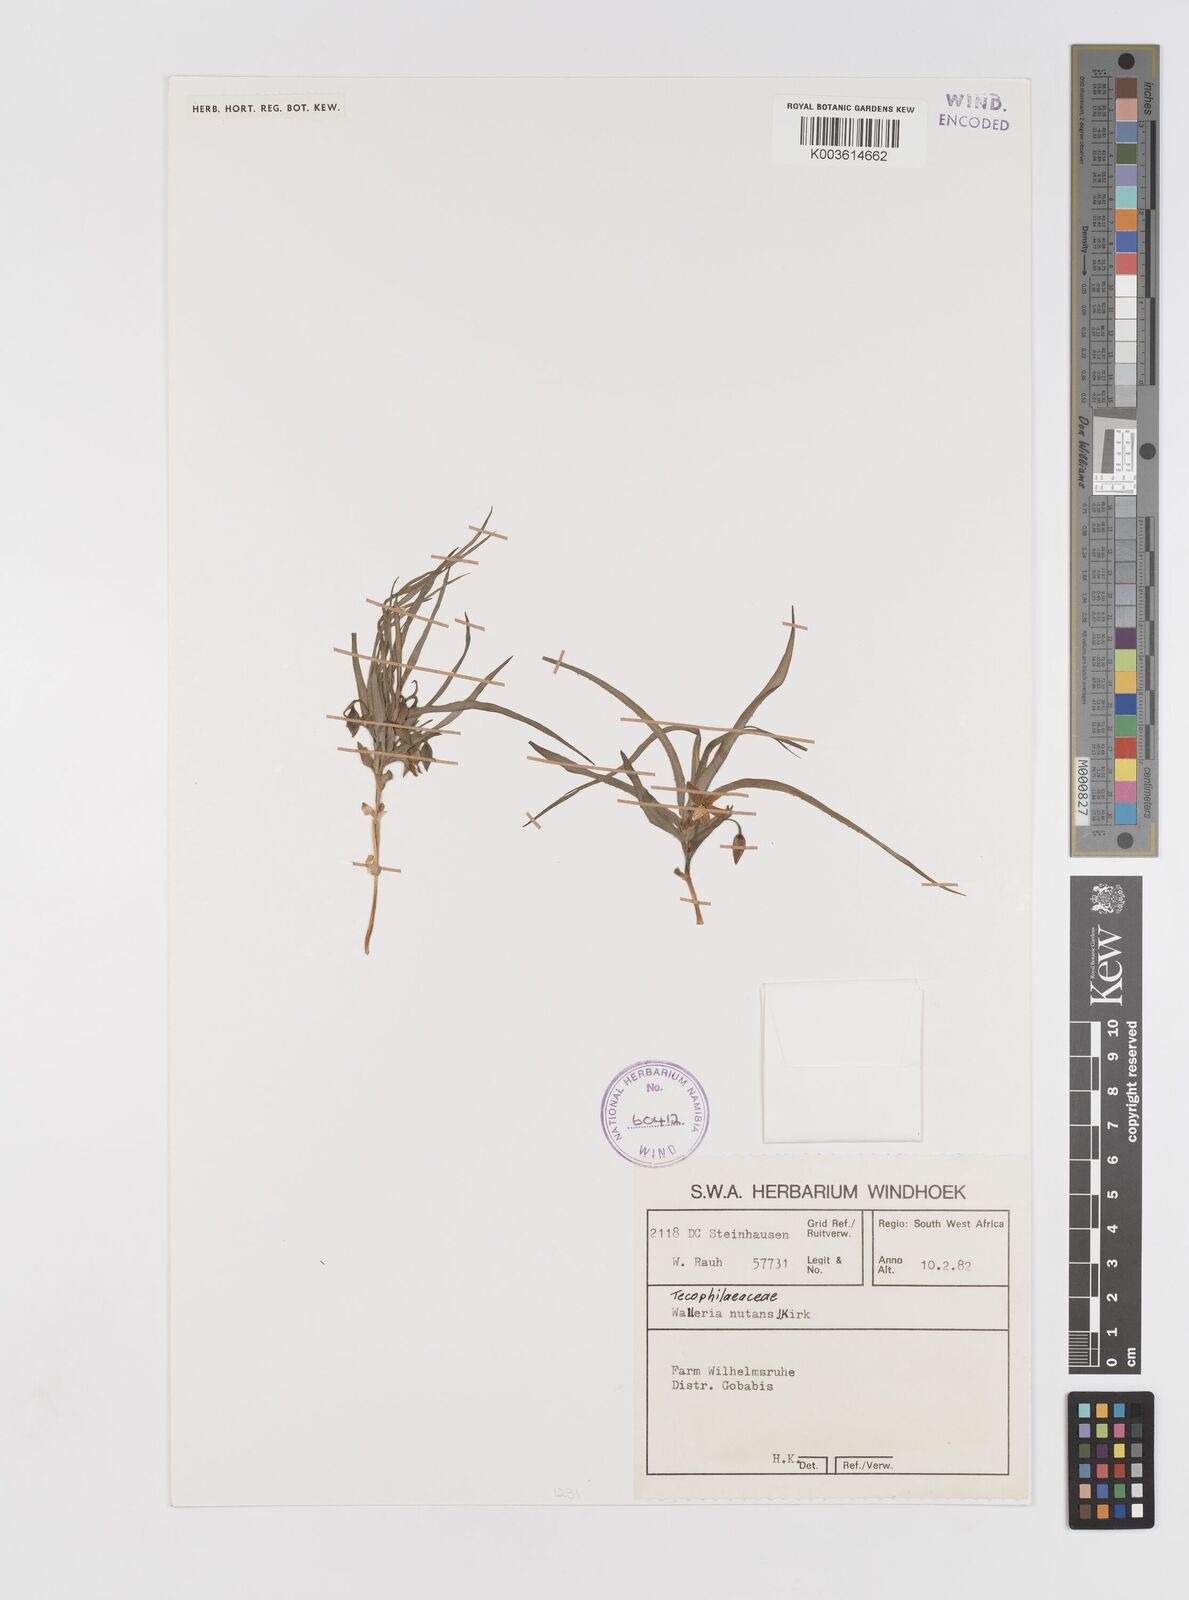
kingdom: Plantae
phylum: Tracheophyta
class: Liliopsida
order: Asparagales
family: Tecophilaeaceae
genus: Walleria
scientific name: Walleria gracilis
